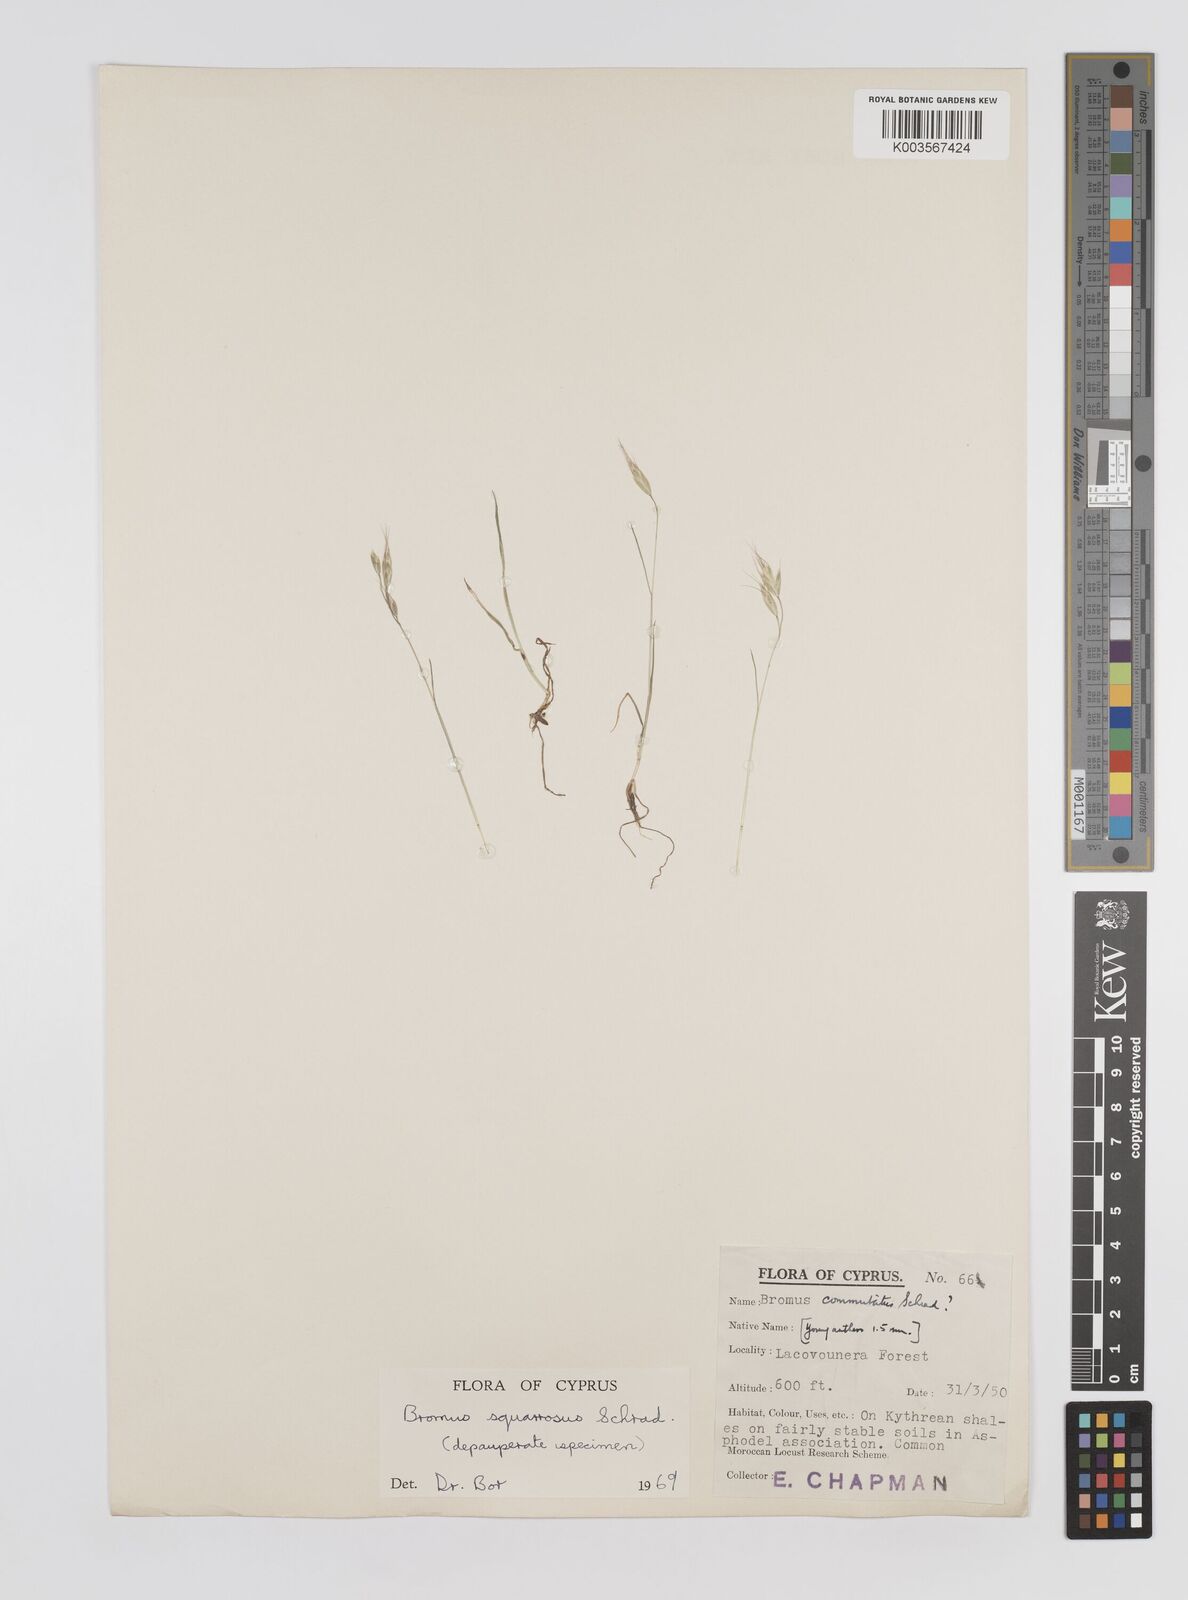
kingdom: Plantae
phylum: Tracheophyta
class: Liliopsida
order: Poales
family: Poaceae
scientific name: Poaceae
